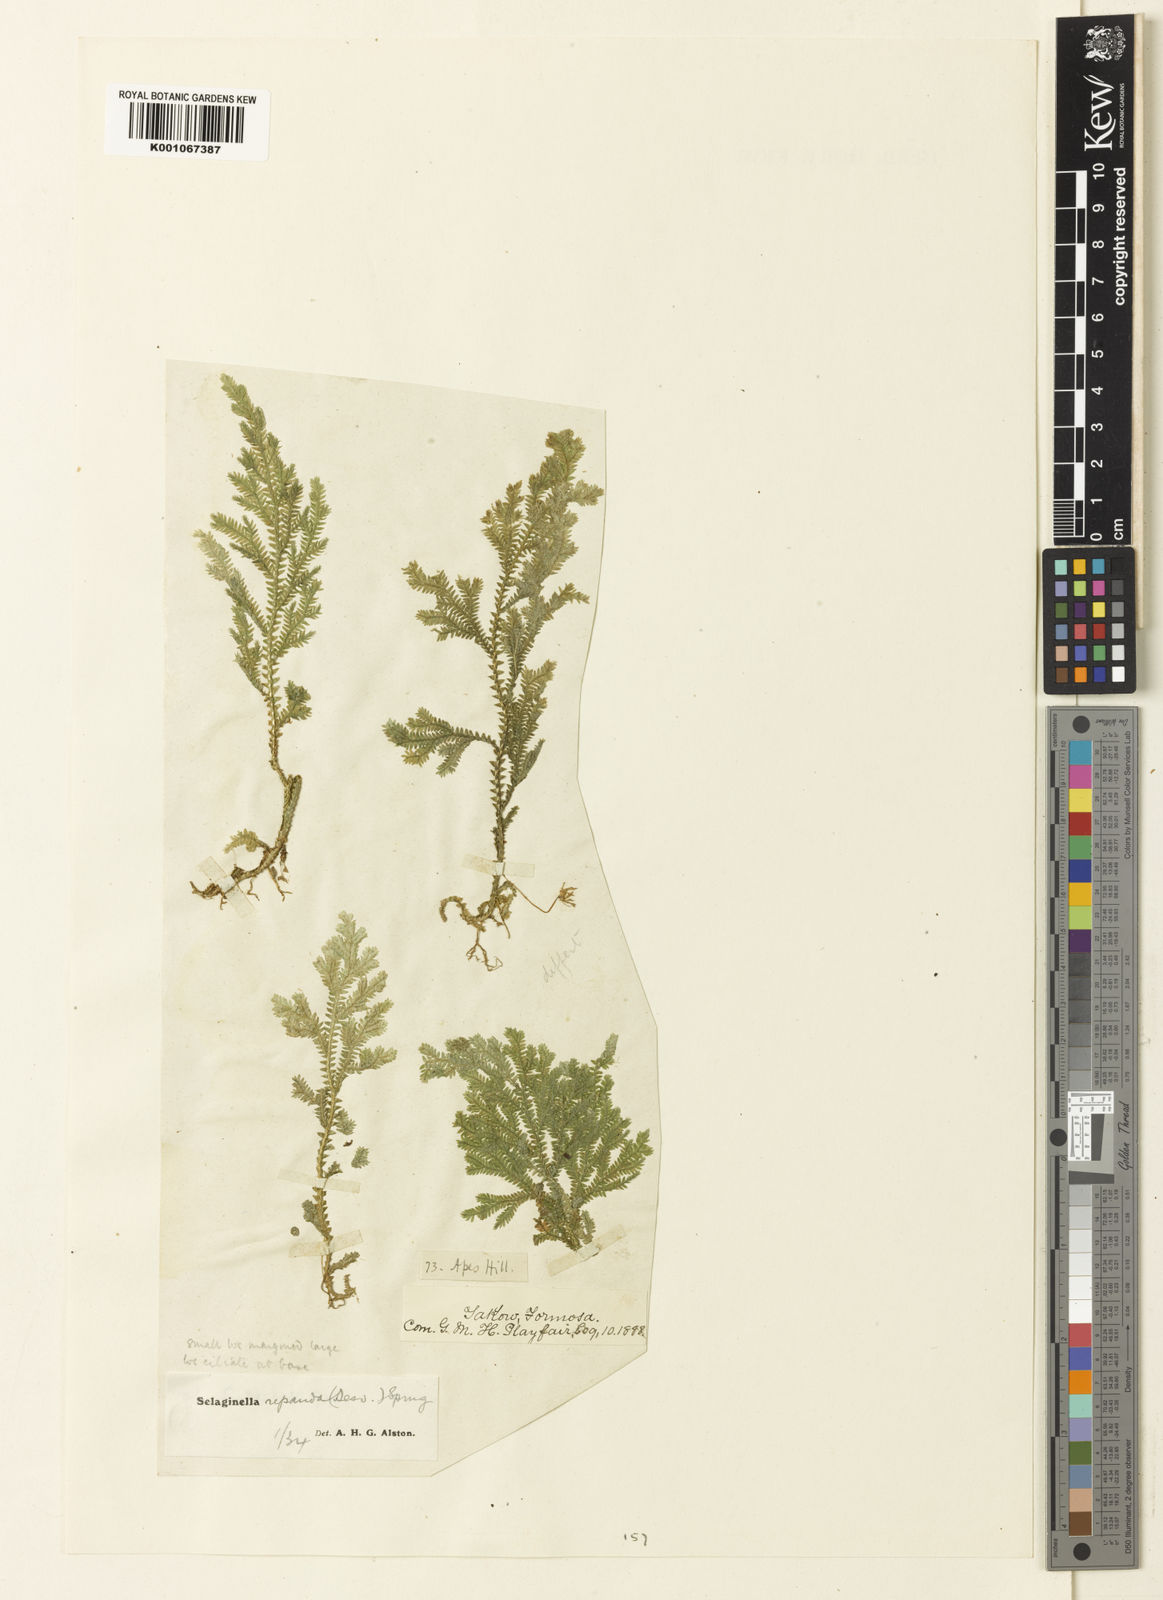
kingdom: Plantae
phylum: Tracheophyta
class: Lycopodiopsida
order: Selaginellales
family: Selaginellaceae
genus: Selaginella
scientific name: Selaginella repanda
